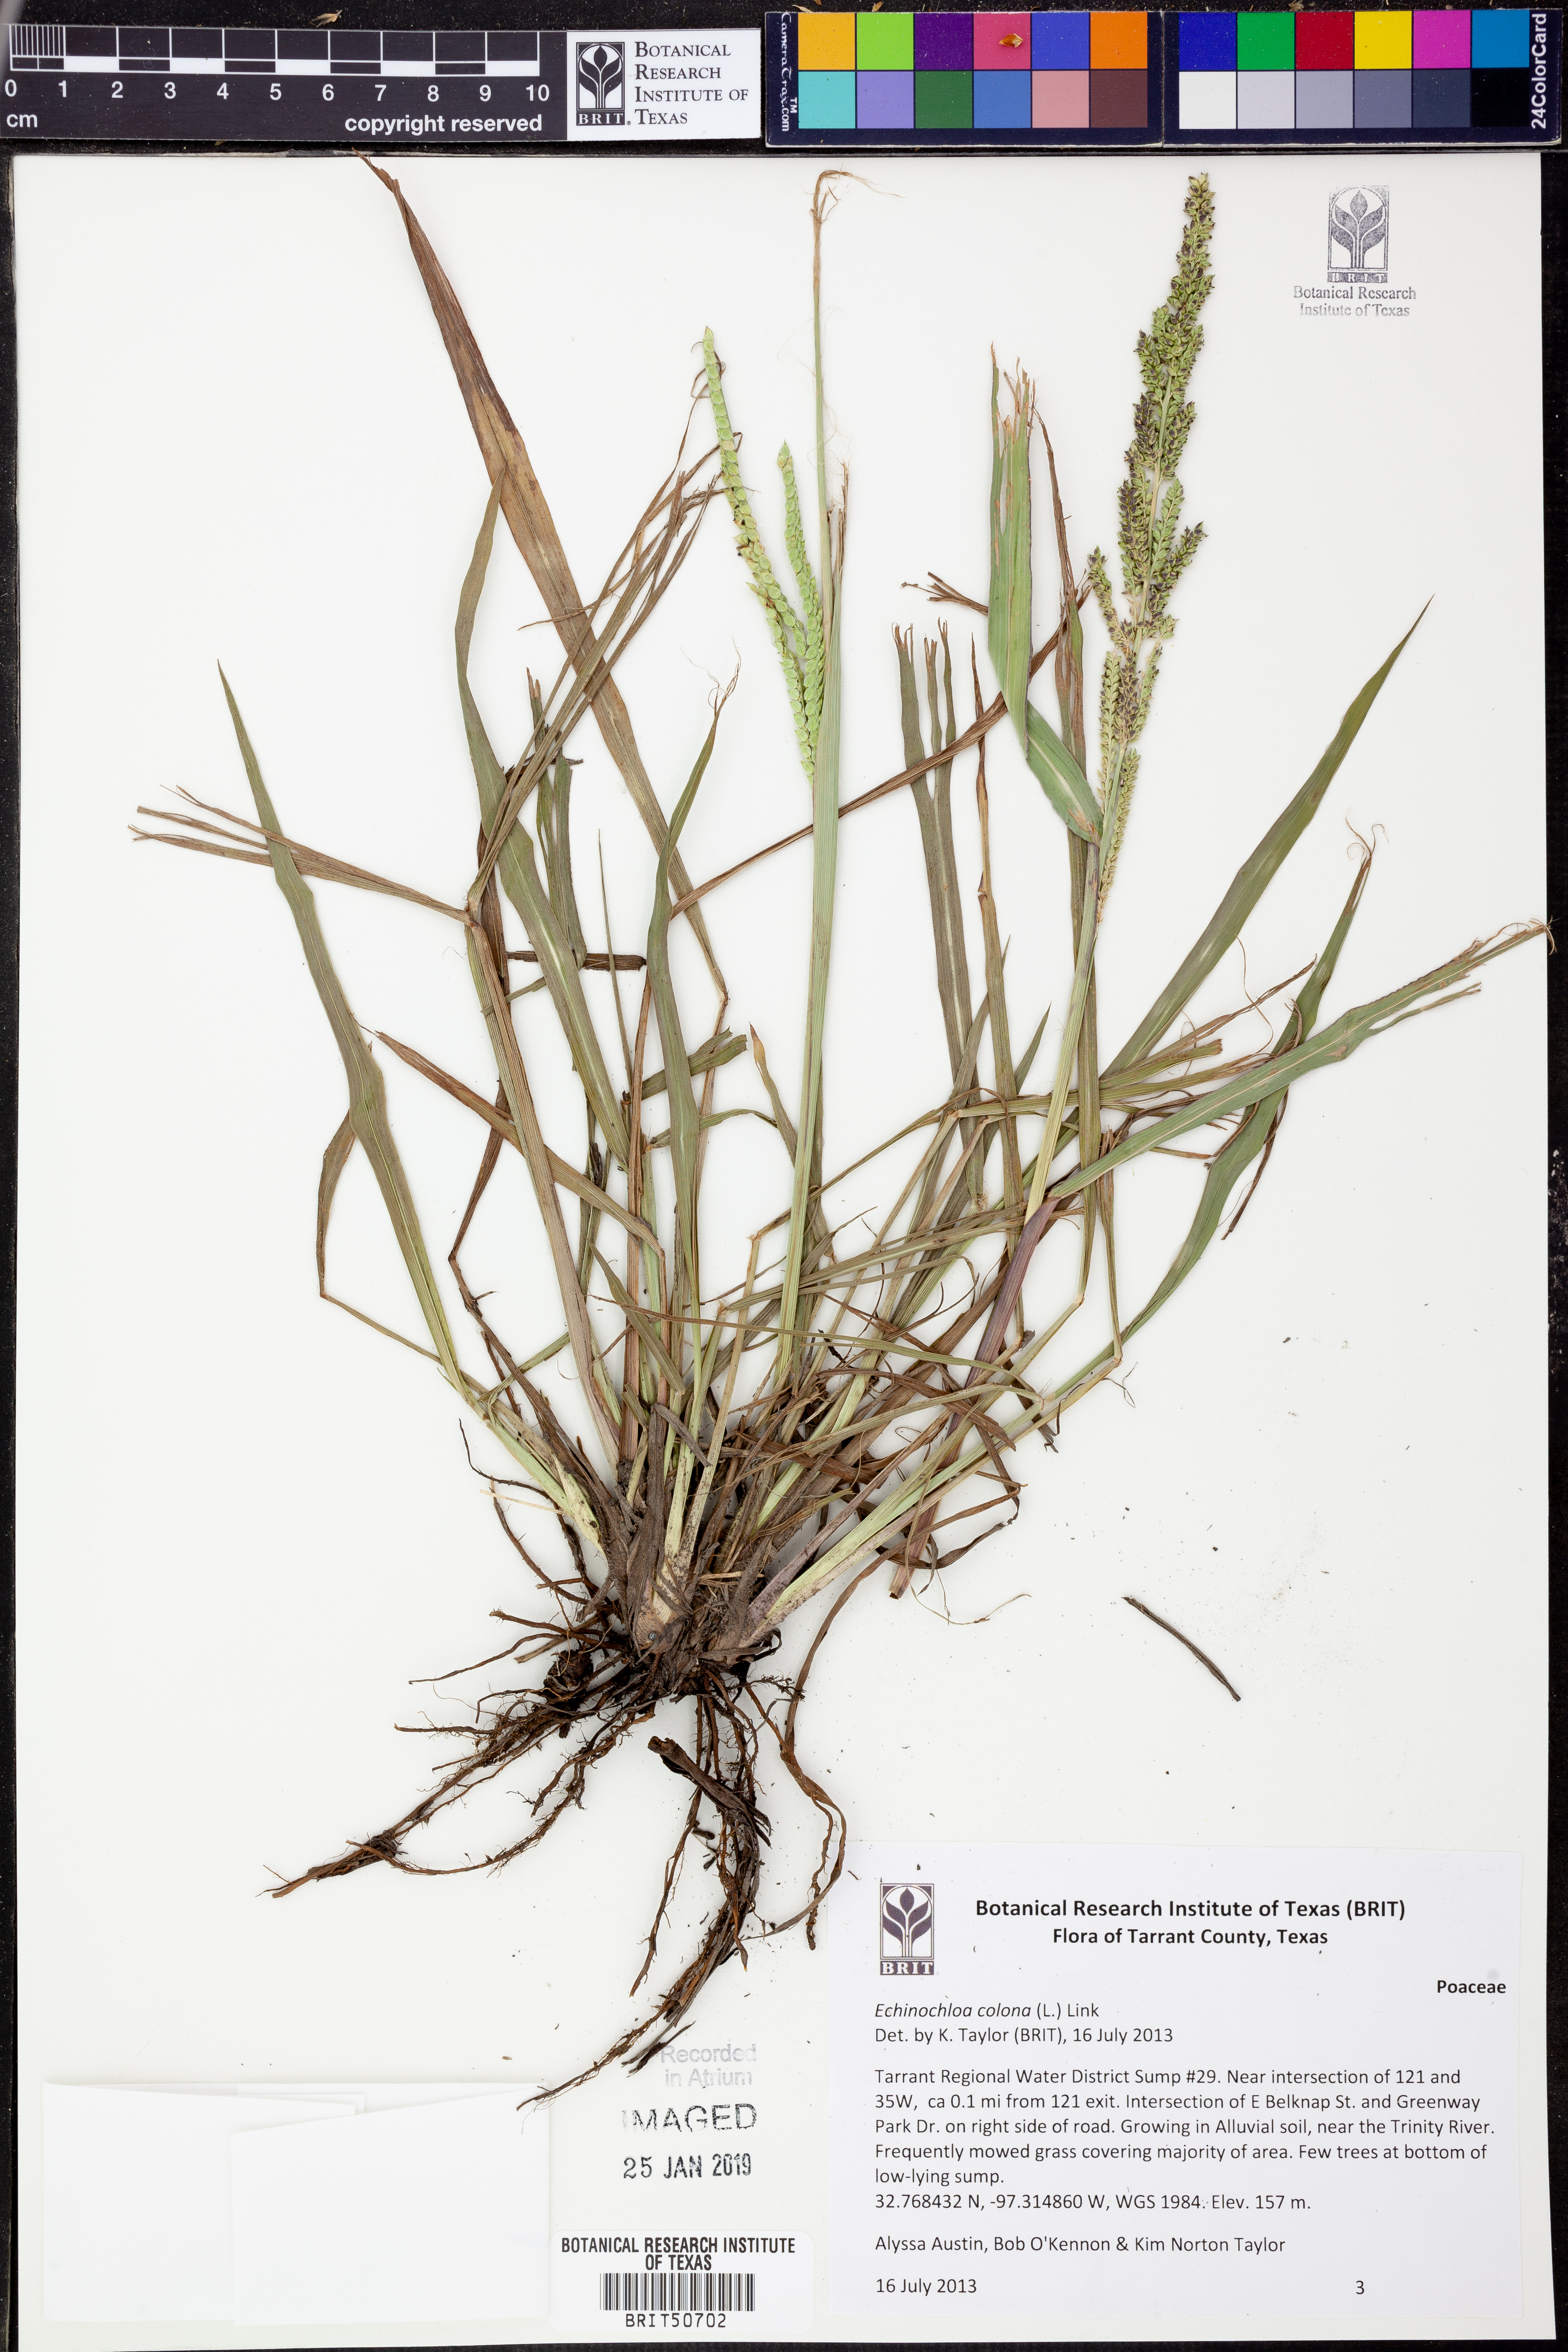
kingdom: Plantae
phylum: Tracheophyta
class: Liliopsida
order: Poales
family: Poaceae
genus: Echinochloa
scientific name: Echinochloa colonum
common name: Jungle rice
